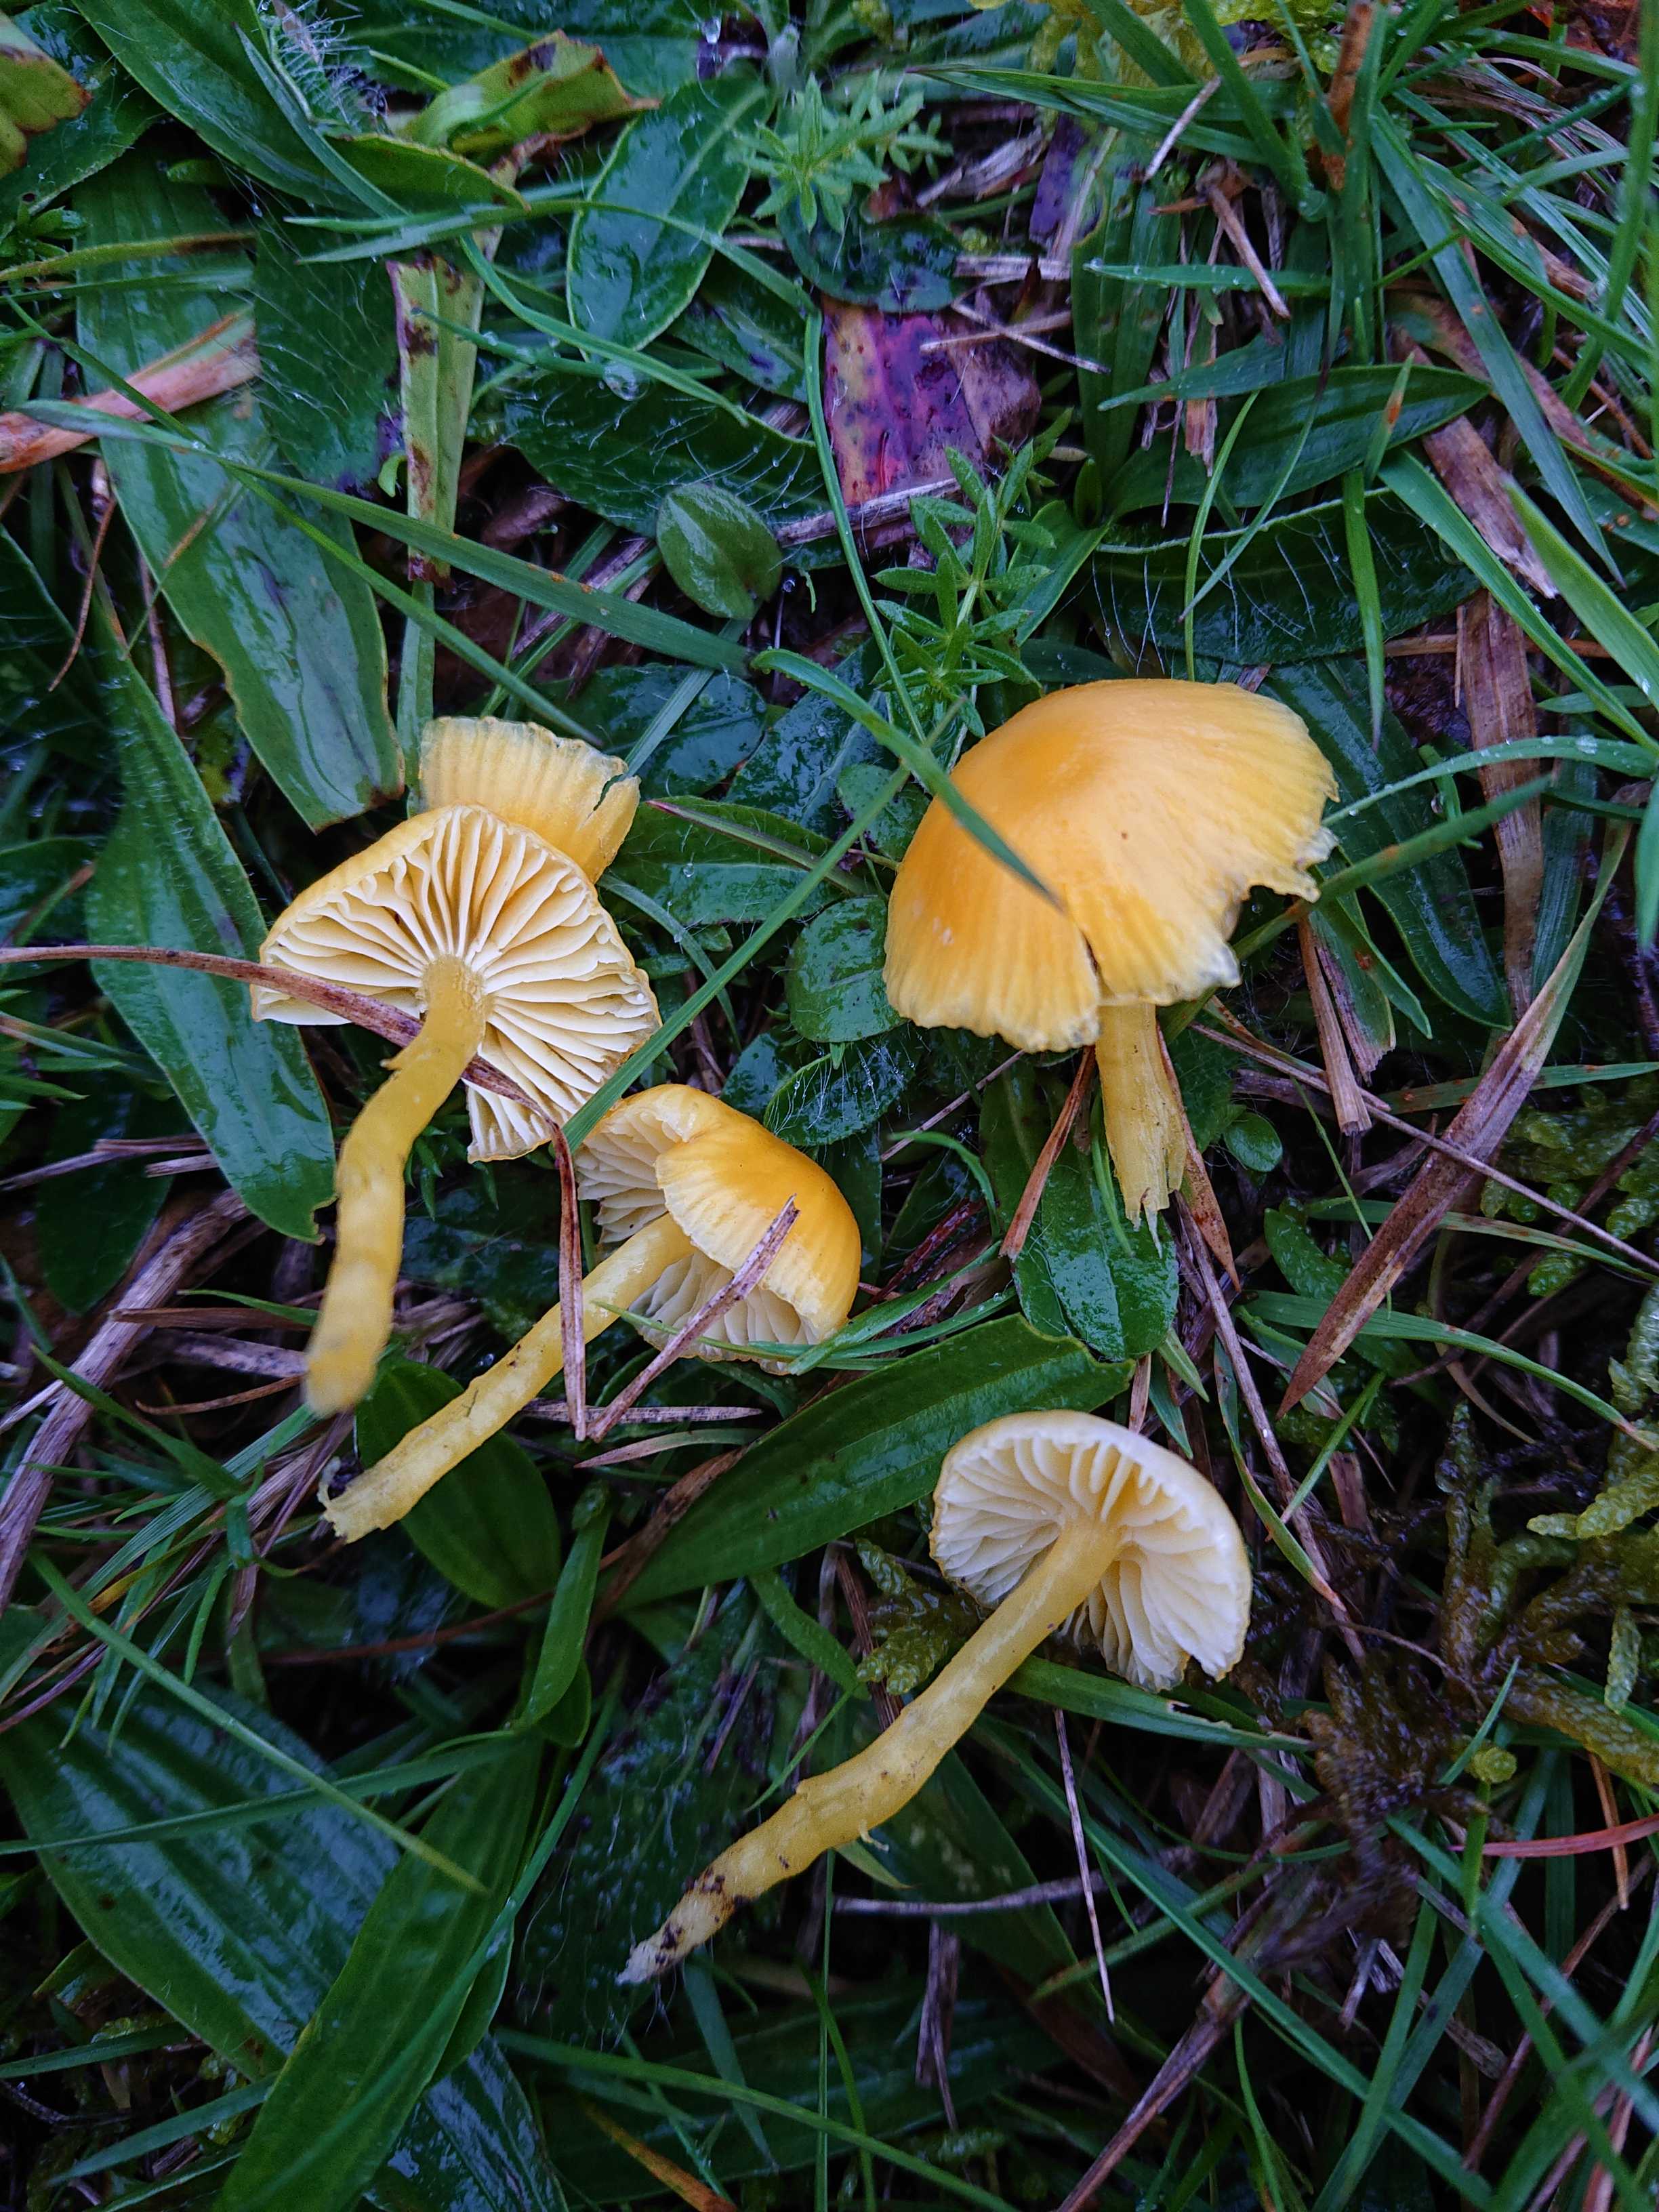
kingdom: Fungi
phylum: Basidiomycota
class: Agaricomycetes
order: Agaricales
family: Hygrophoraceae
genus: Hygrocybe
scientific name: Hygrocybe ceracea
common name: voksgul vokshat
